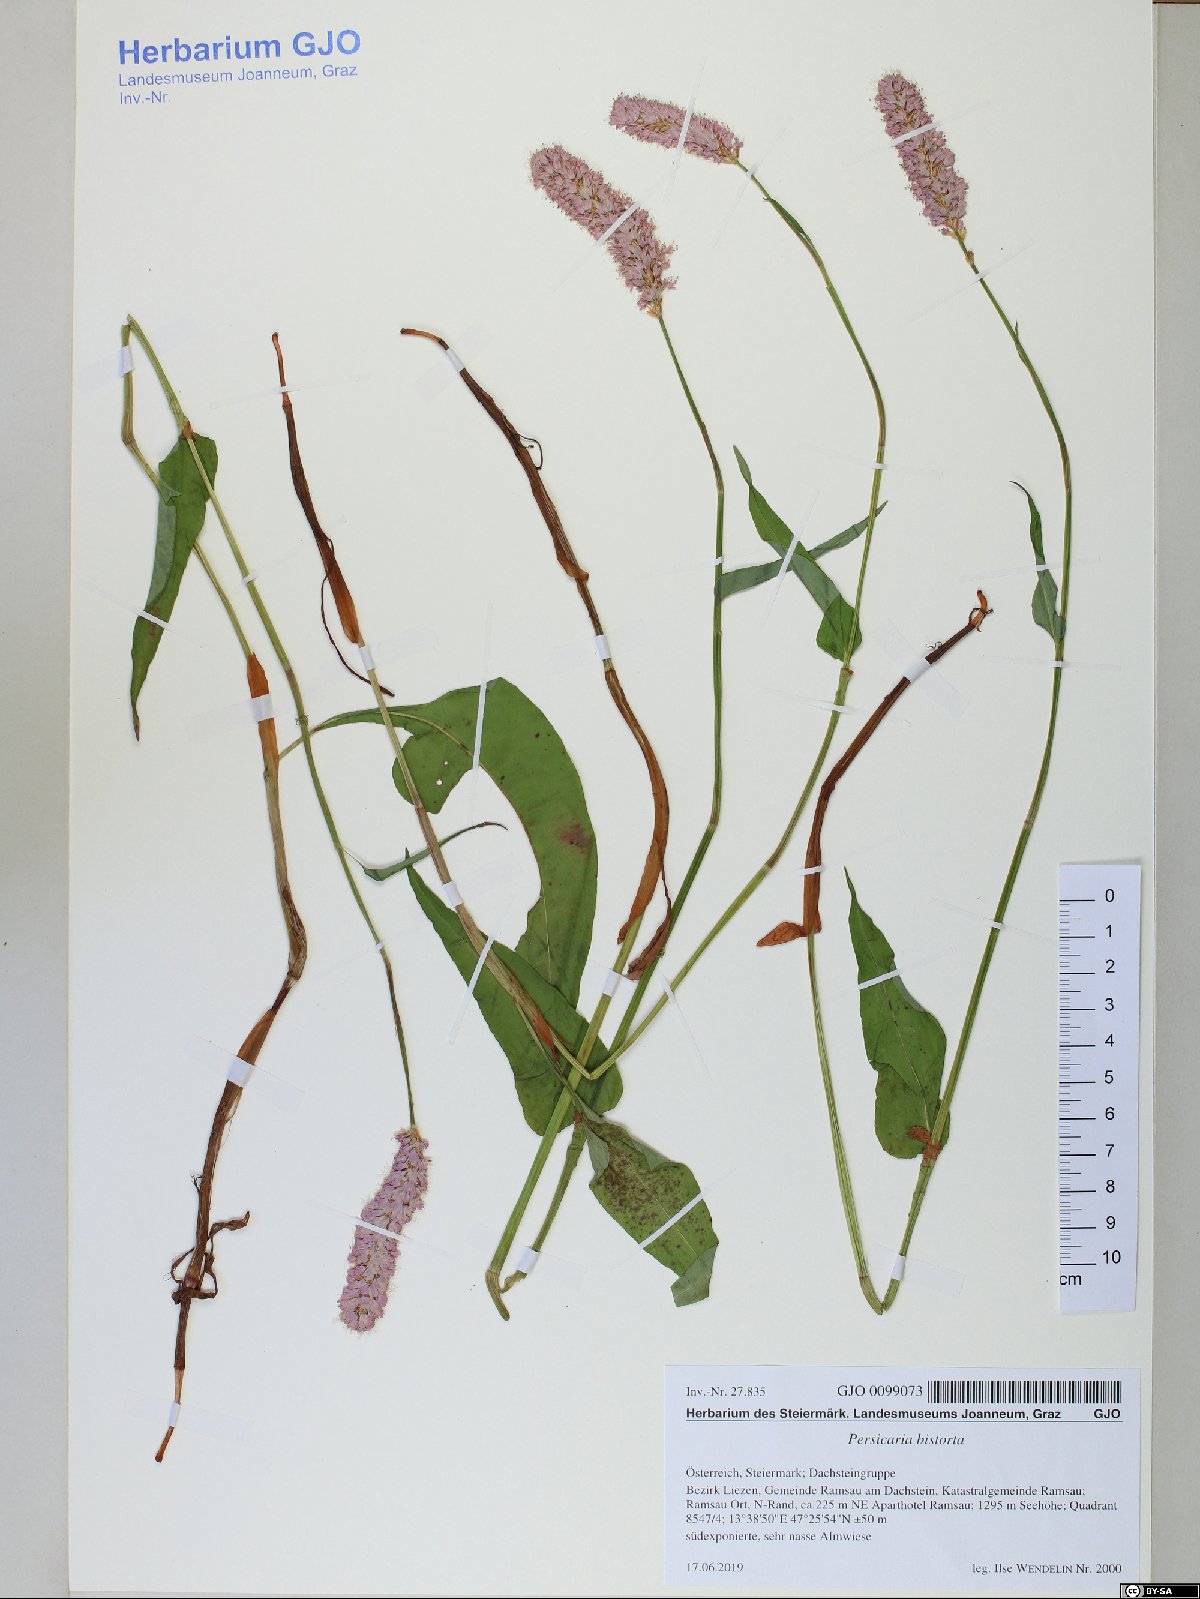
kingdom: Plantae
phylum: Tracheophyta
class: Magnoliopsida
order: Caryophyllales
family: Polygonaceae
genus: Bistorta
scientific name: Bistorta officinalis
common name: Common bistort
